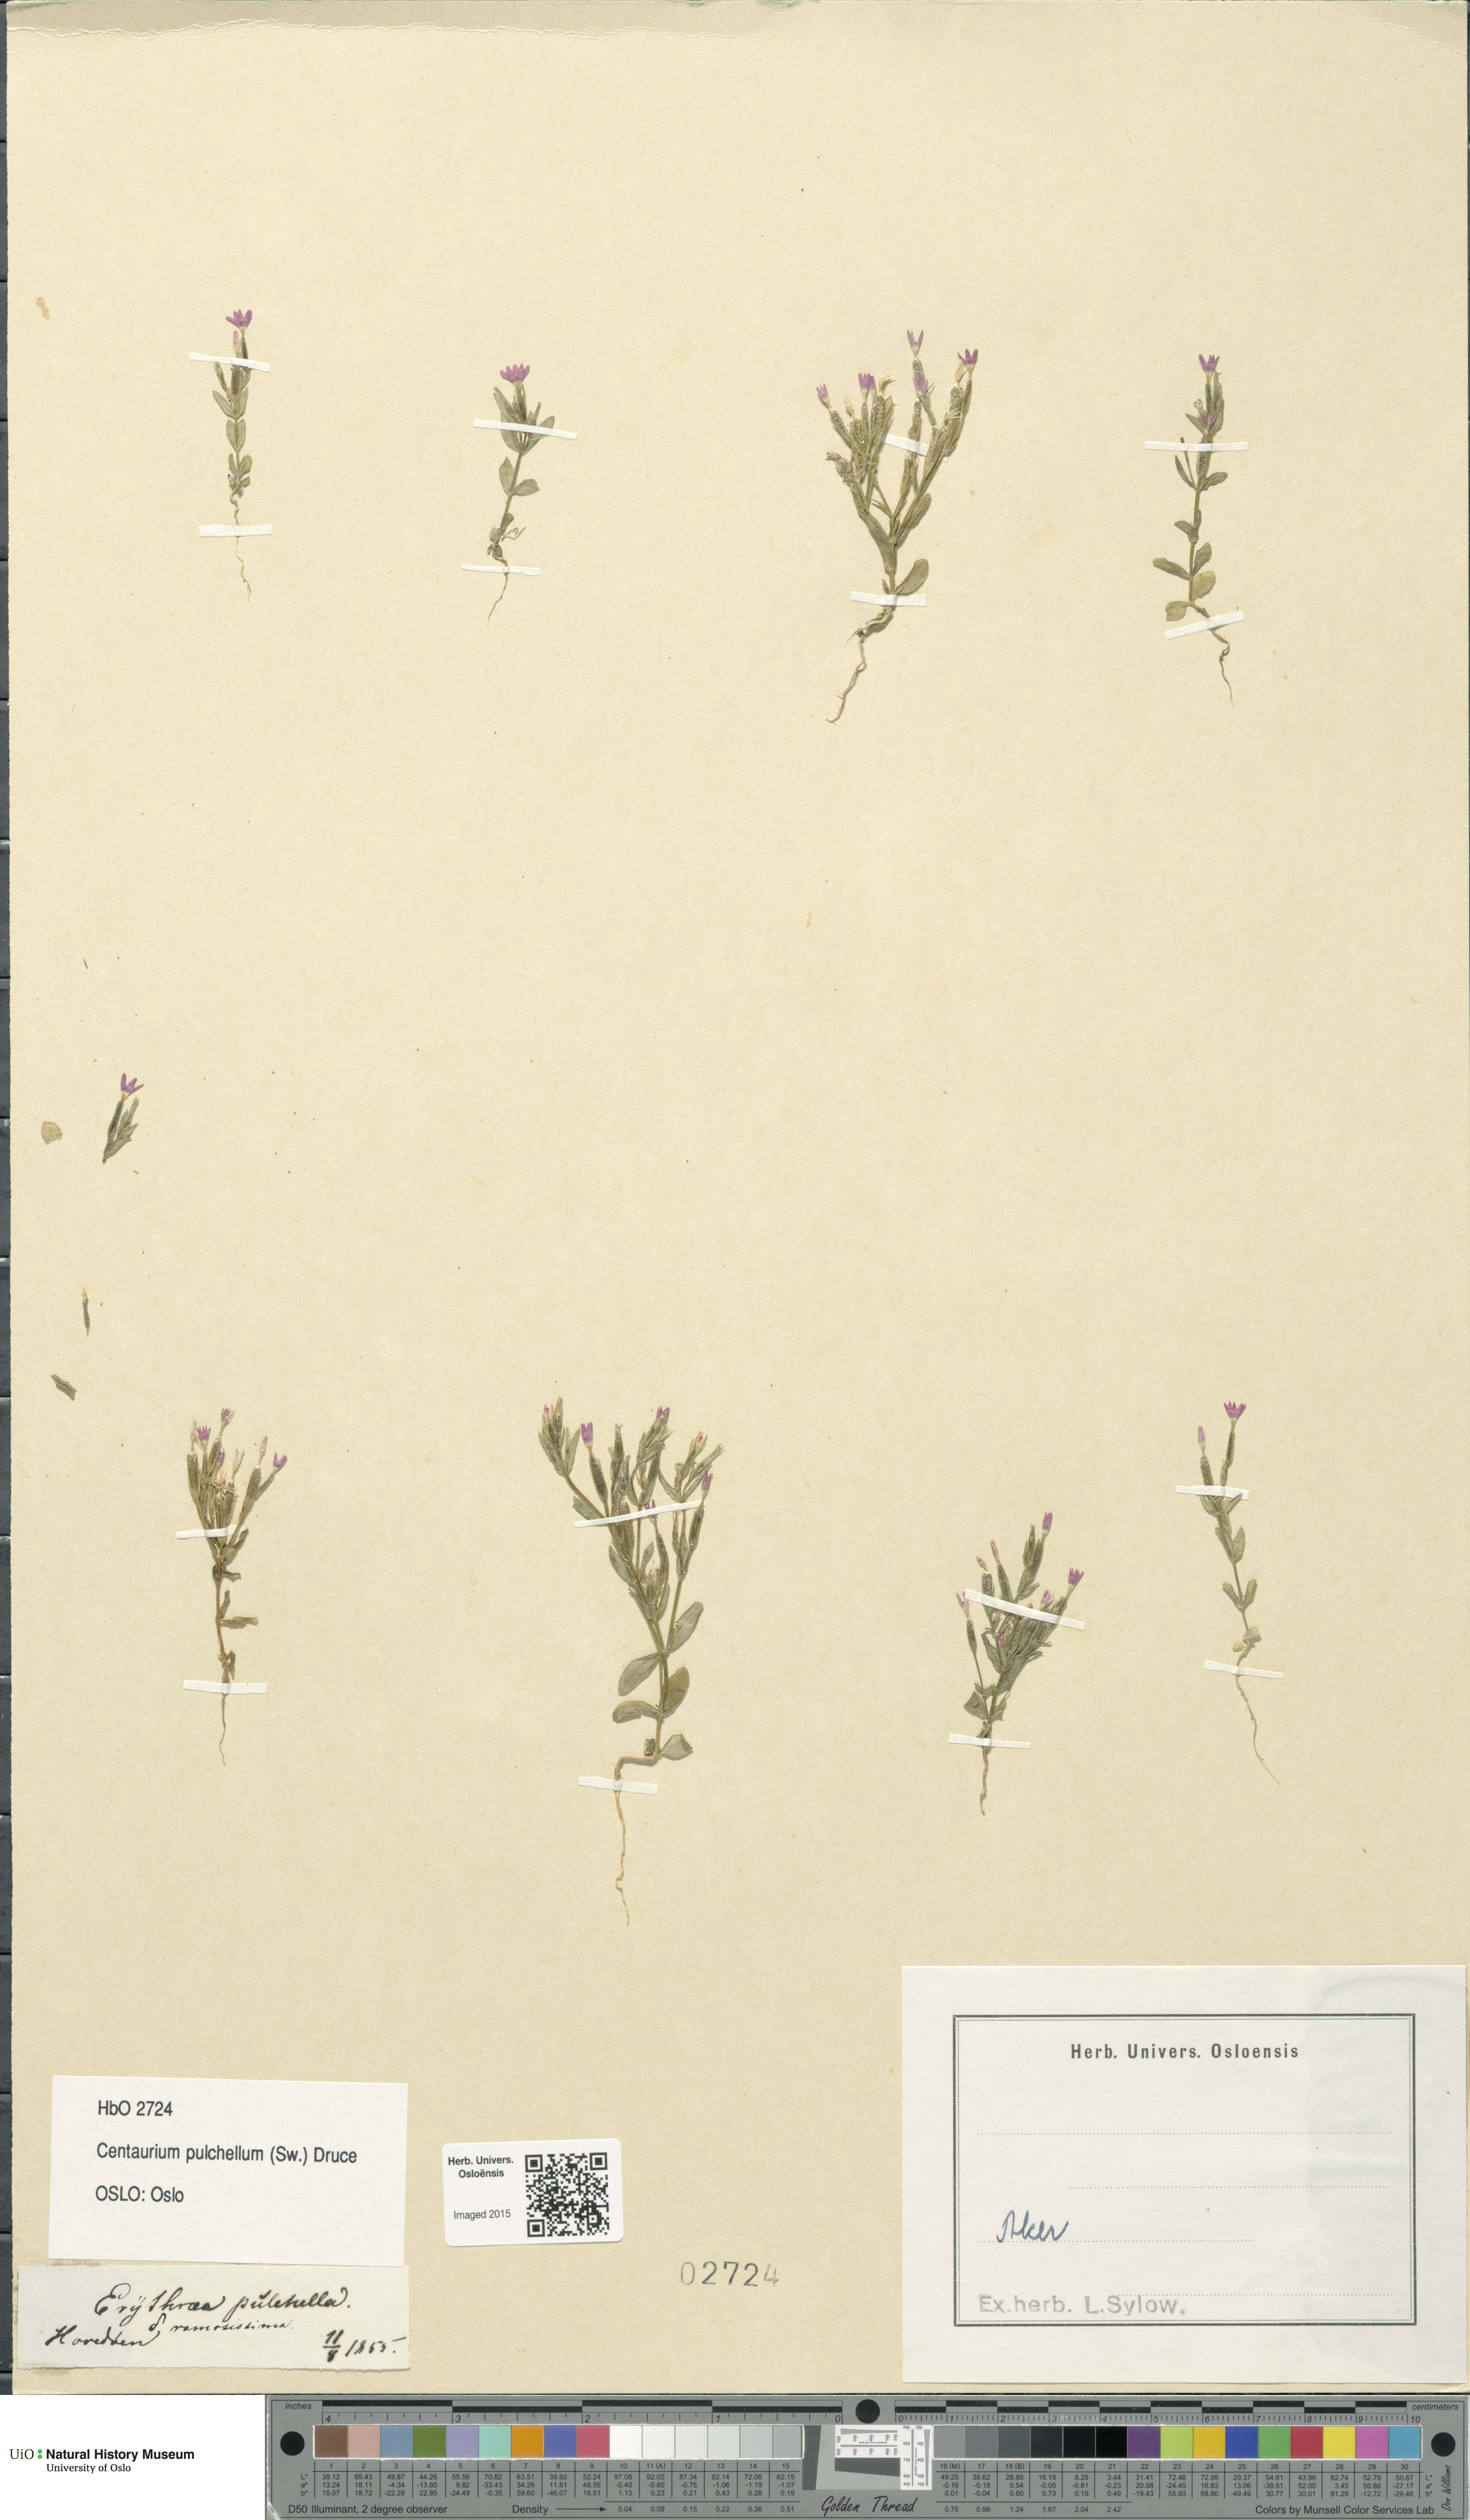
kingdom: Plantae
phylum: Tracheophyta
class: Magnoliopsida
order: Gentianales
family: Gentianaceae
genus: Centaurium
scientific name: Centaurium pulchellum
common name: Lesser centaury
